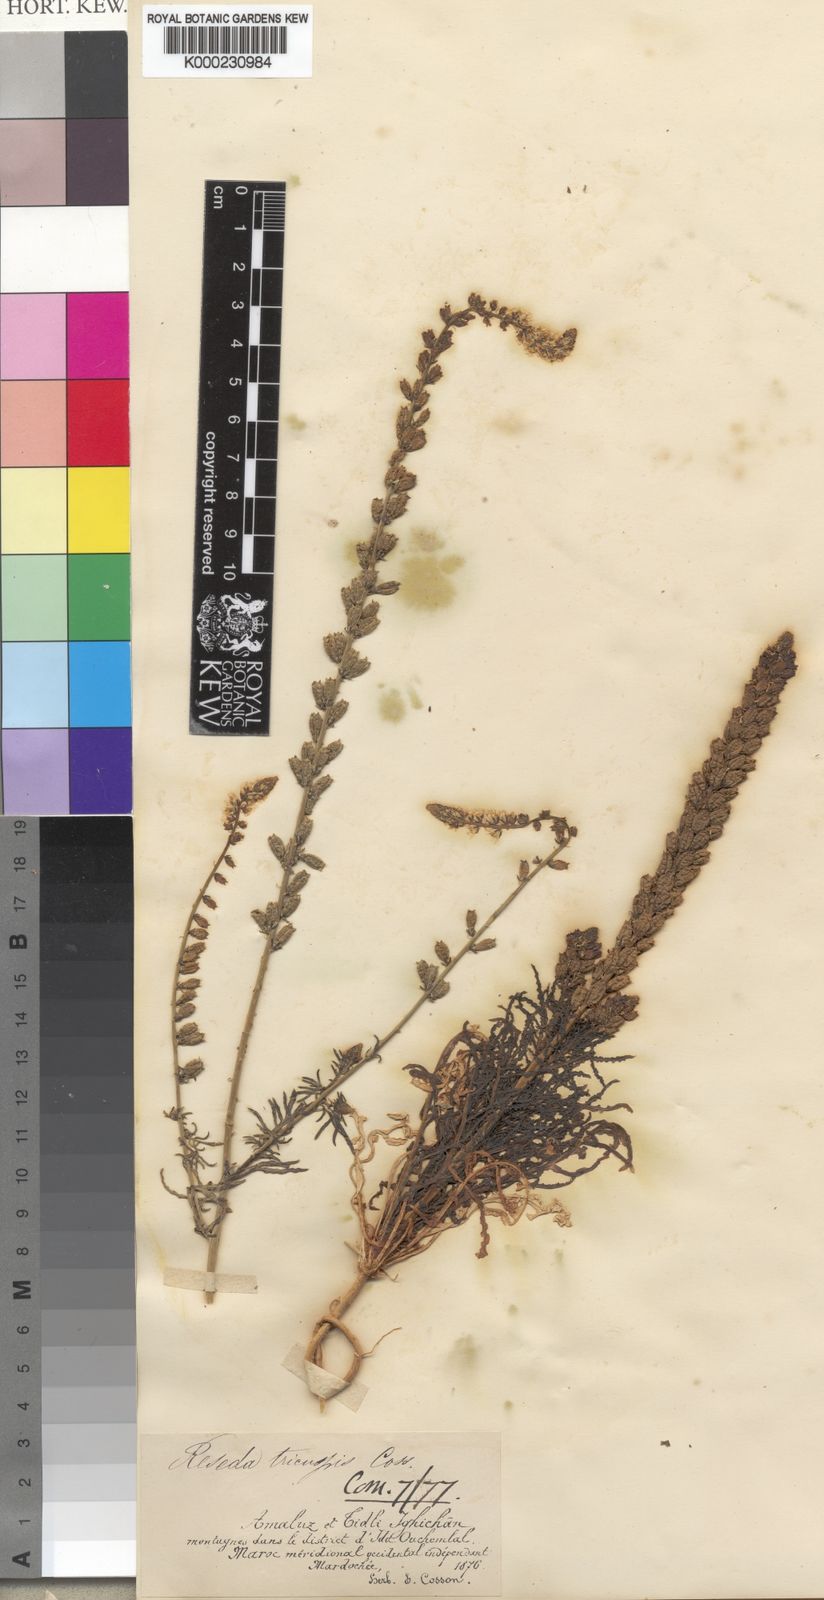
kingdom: Plantae
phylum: Tracheophyta
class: Magnoliopsida
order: Brassicales
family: Resedaceae
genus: Reseda
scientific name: Reseda alba
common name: White mignonette
